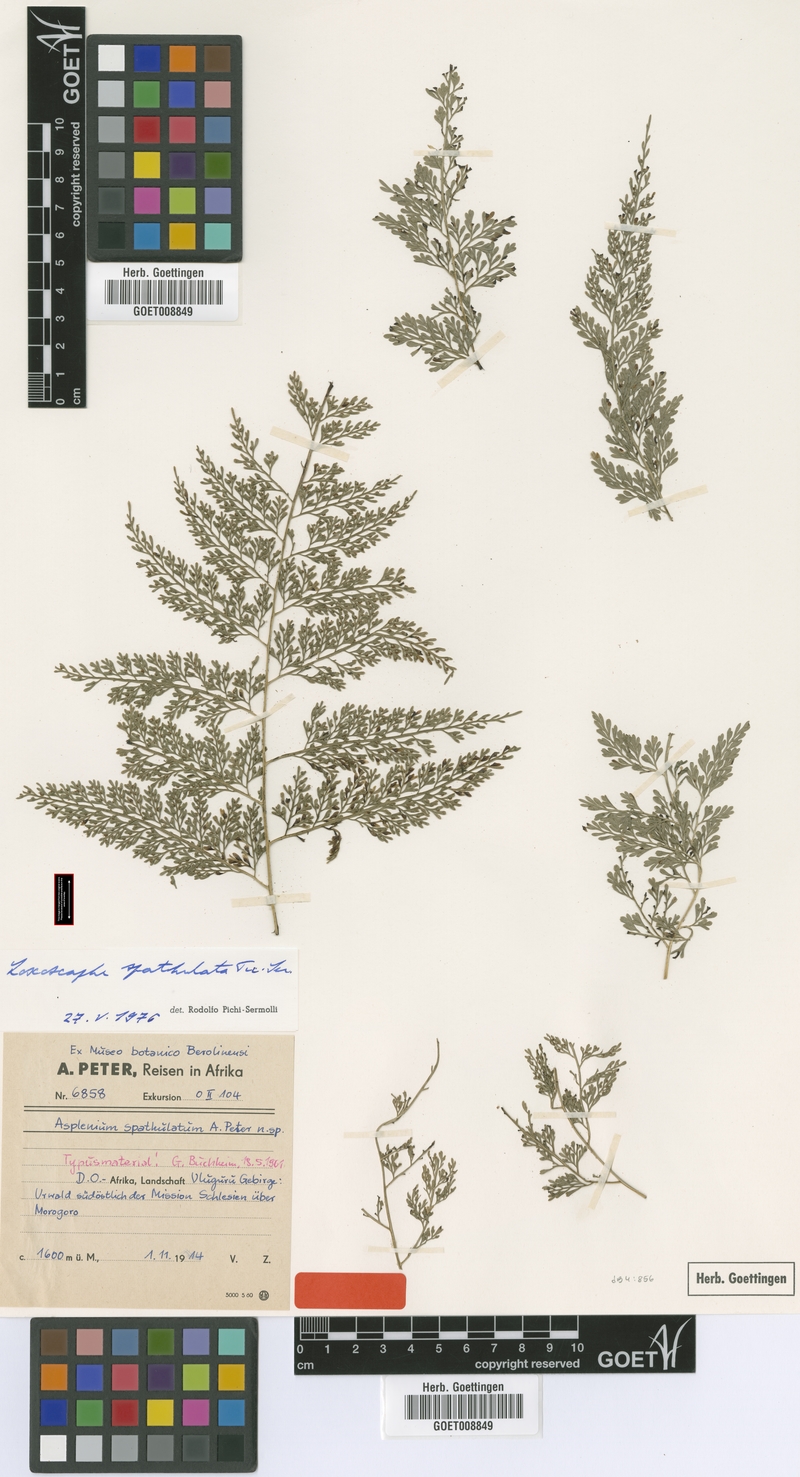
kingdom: Plantae
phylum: Tracheophyta
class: Polypodiopsida
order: Polypodiales
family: Aspleniaceae
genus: Asplenium
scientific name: Asplenium hypomelas
